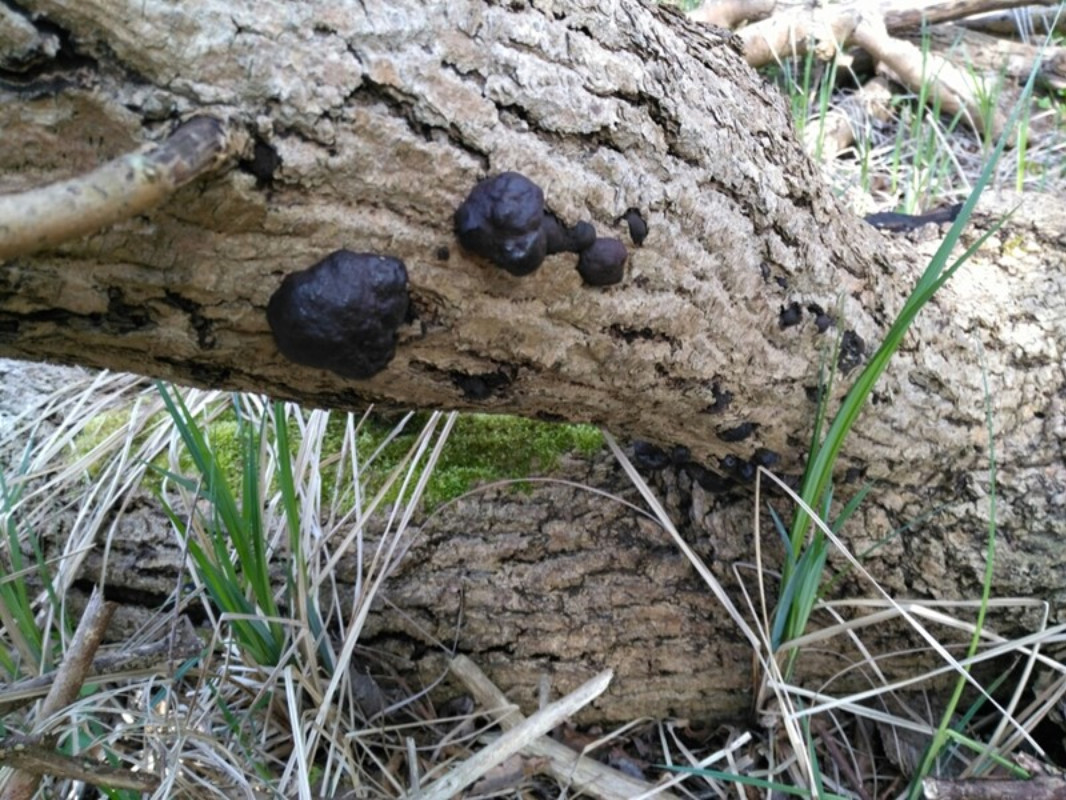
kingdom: Fungi
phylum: Ascomycota
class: Sordariomycetes
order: Xylariales
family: Hypoxylaceae
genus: Daldinia
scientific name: Daldinia concentrica
